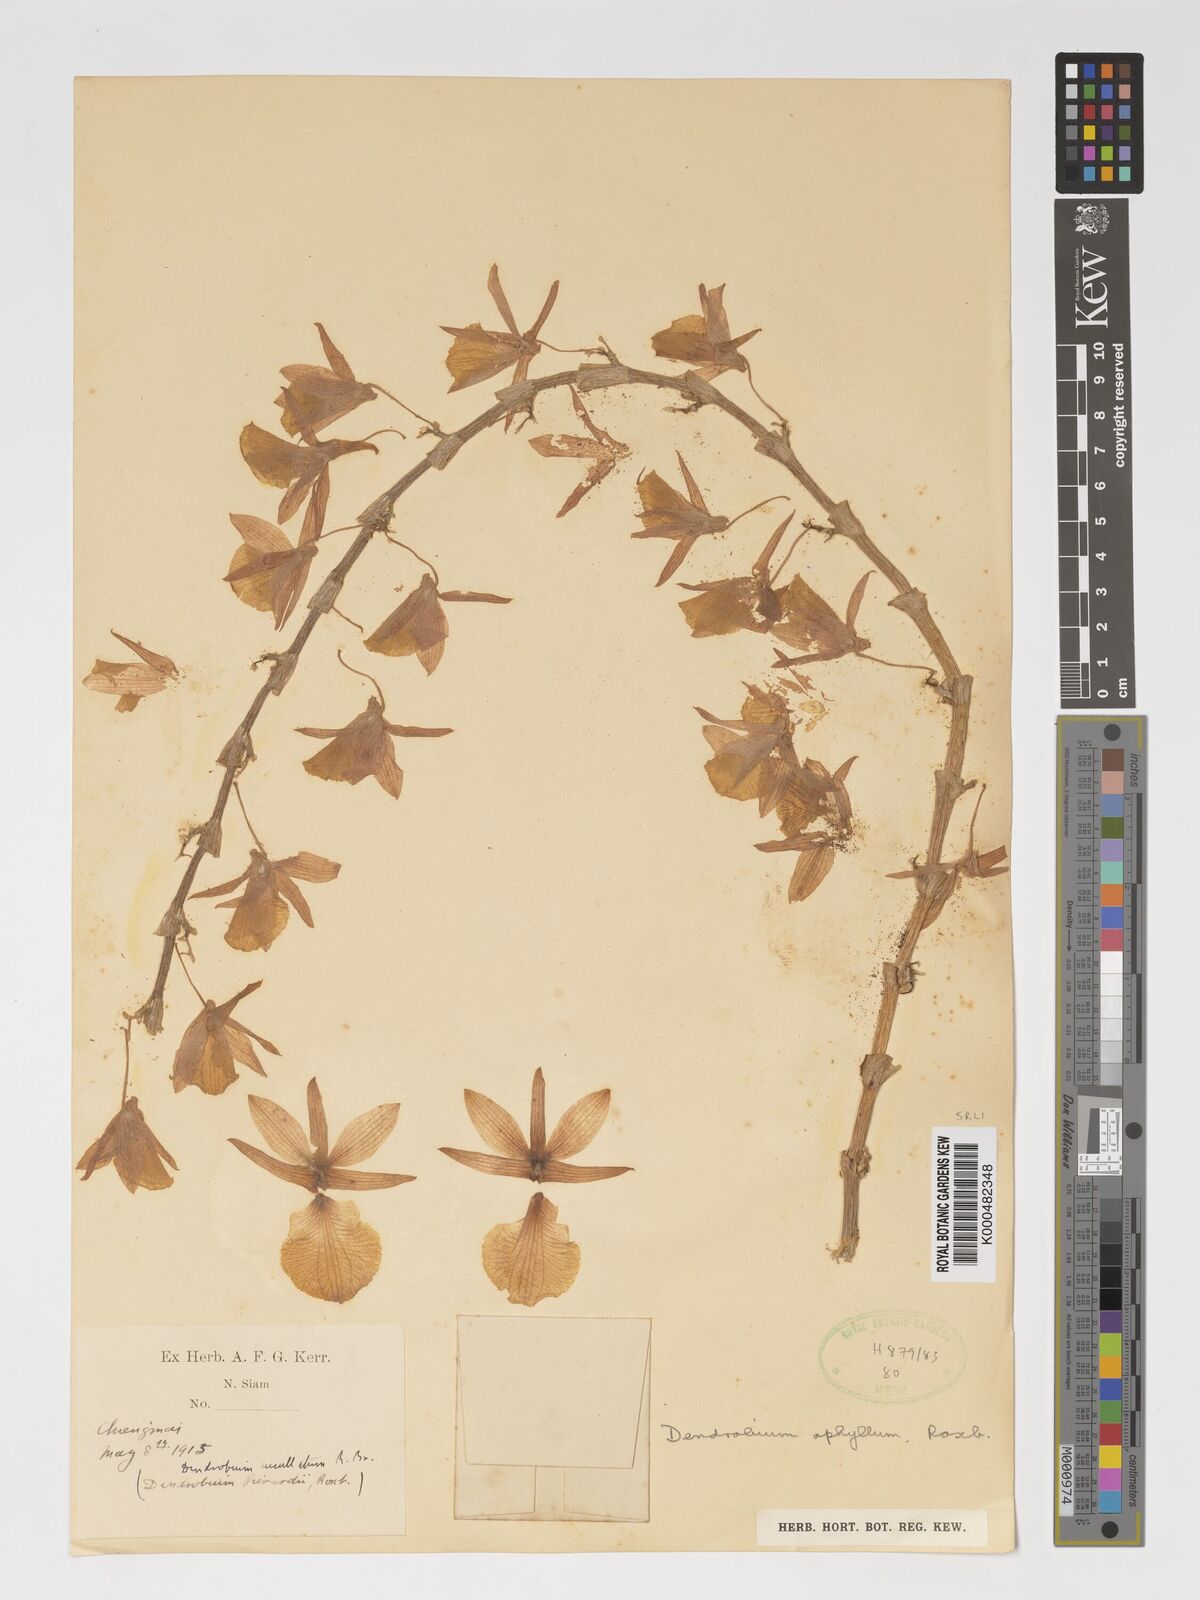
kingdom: Plantae
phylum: Tracheophyta
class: Liliopsida
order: Asparagales
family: Orchidaceae
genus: Dendrobium
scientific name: Dendrobium macrostachyum
